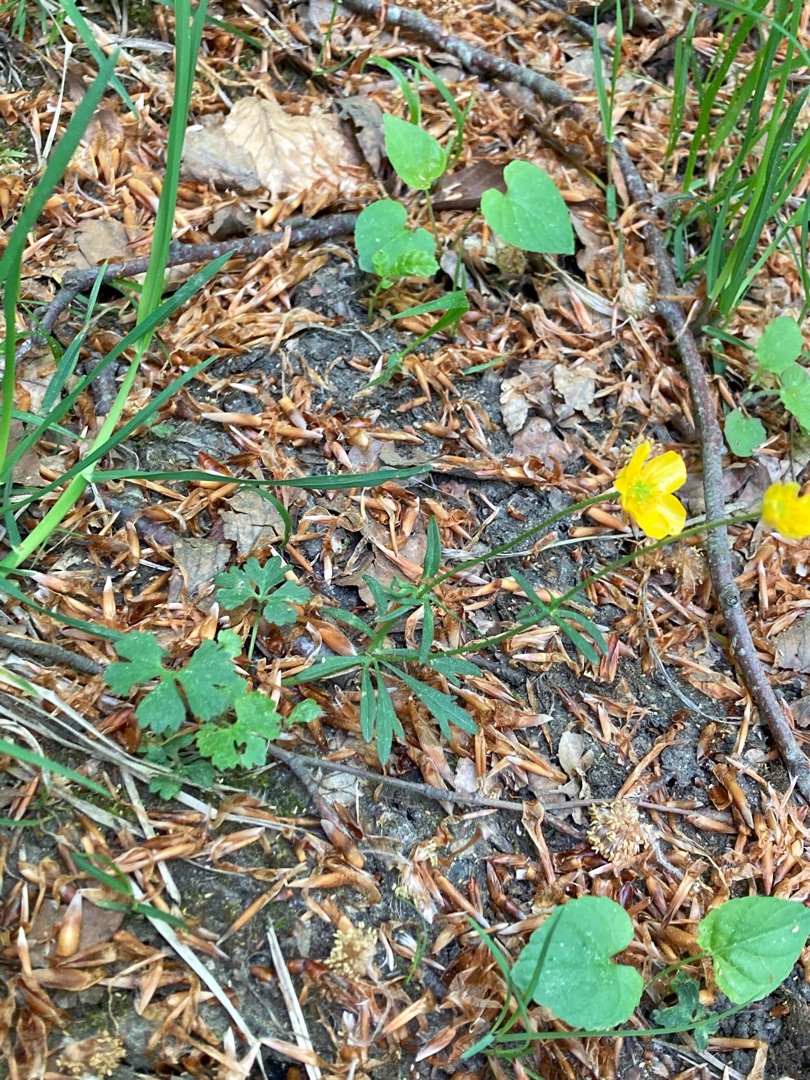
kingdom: Plantae
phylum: Tracheophyta
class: Magnoliopsida
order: Ranunculales
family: Ranunculaceae
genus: Ranunculus
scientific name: Ranunculus auricomus
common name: Nyrebladet ranunkel
